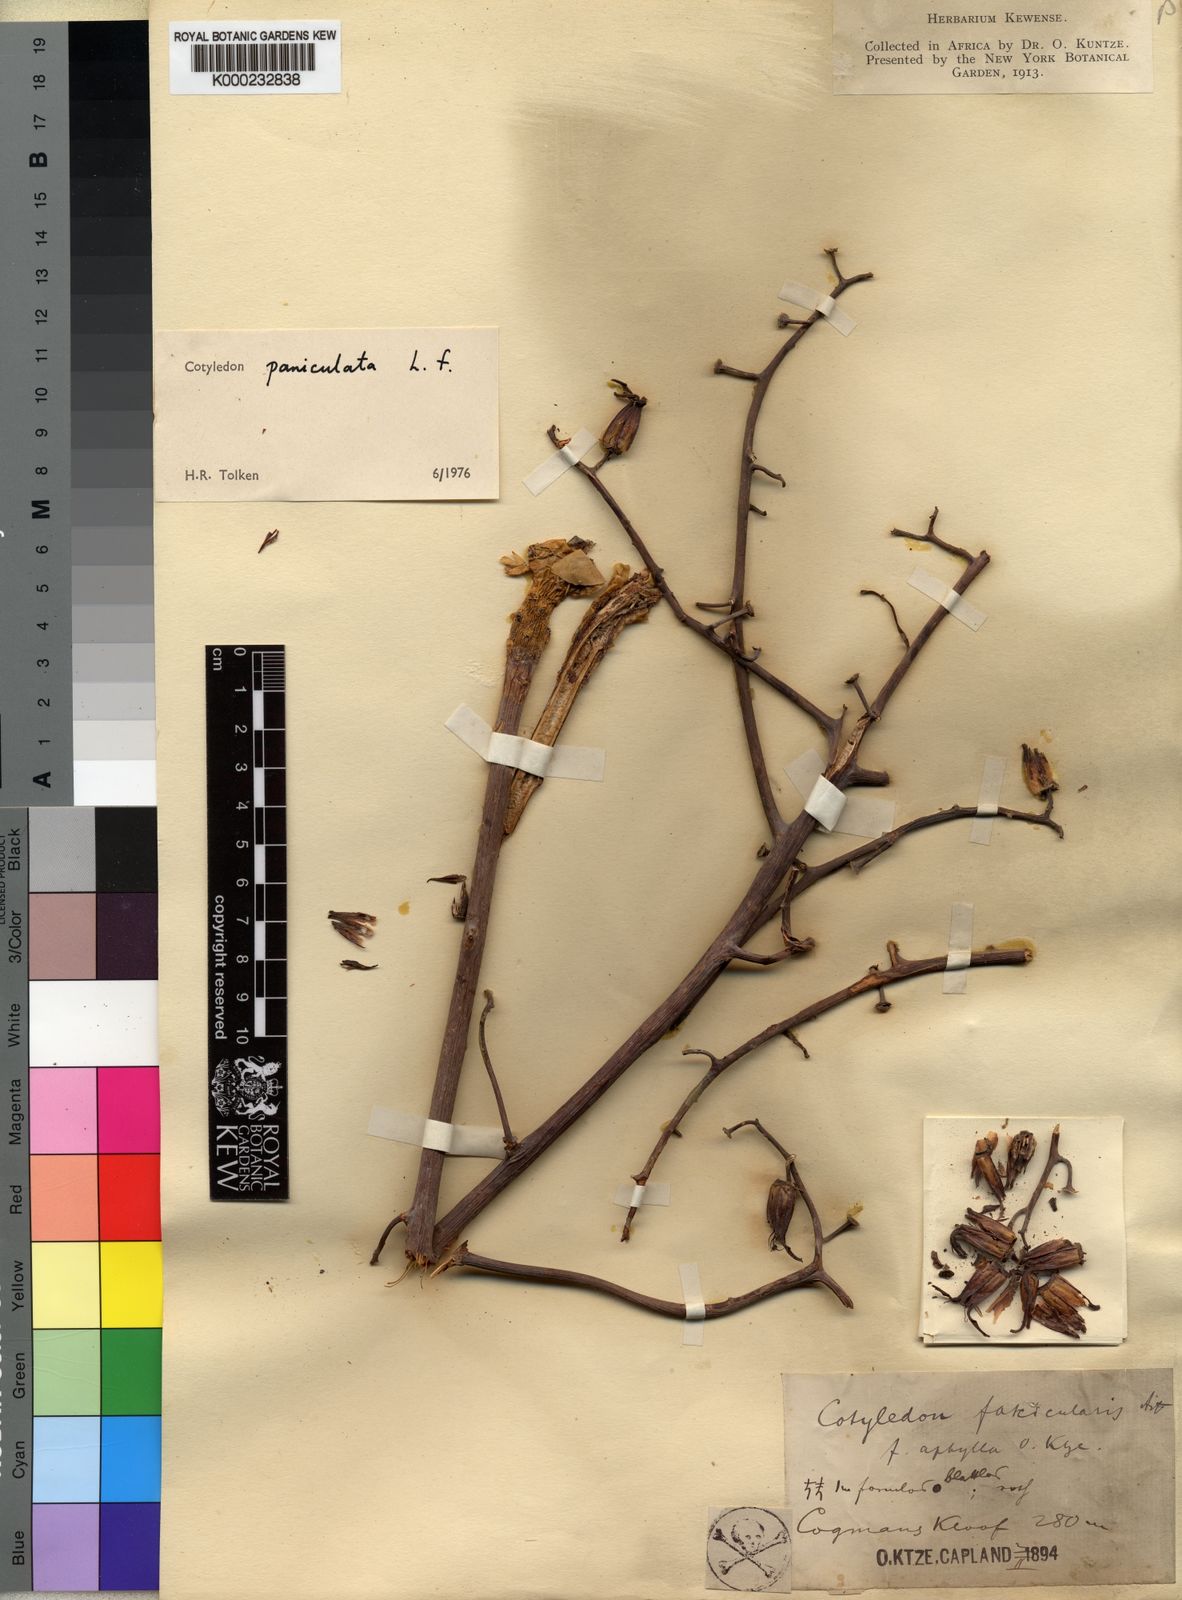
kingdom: Plantae
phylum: Tracheophyta
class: Magnoliopsida
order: Saxifragales
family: Crassulaceae
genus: Tylecodon
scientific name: Tylecodon paniculatus
